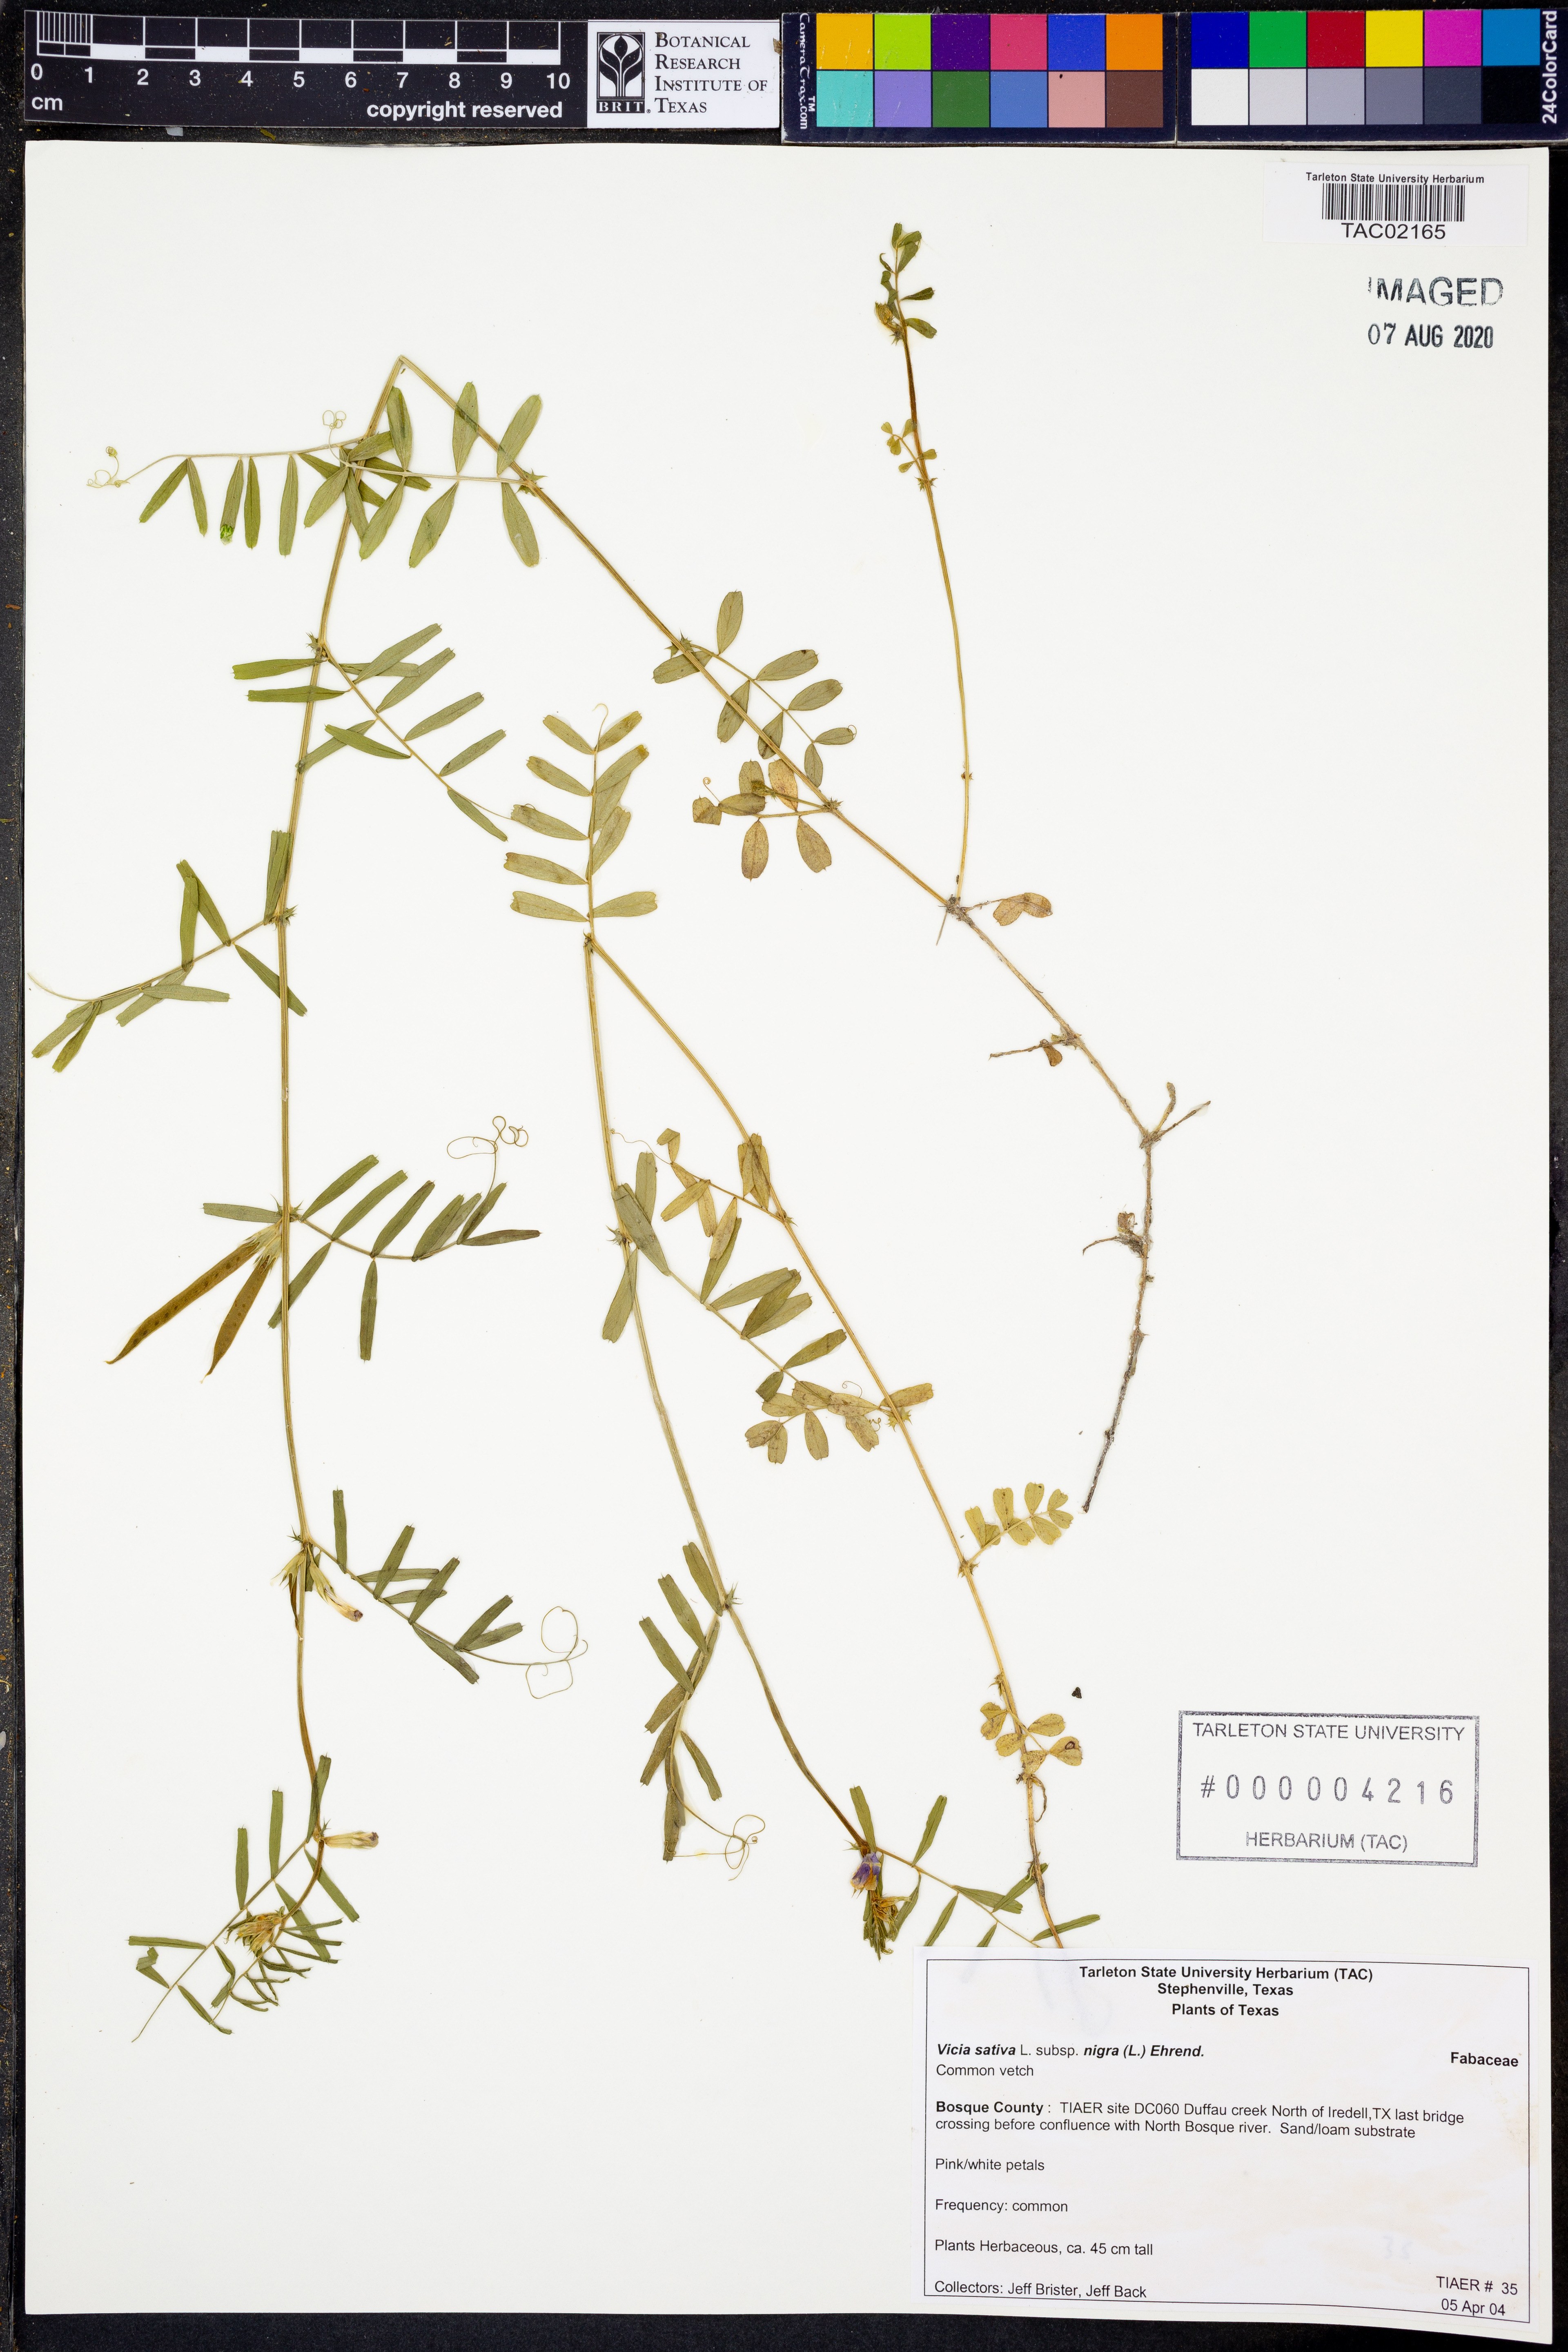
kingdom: Plantae
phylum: Tracheophyta
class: Magnoliopsida
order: Fabales
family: Fabaceae
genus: Vicia
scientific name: Vicia sativa
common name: Garden vetch
